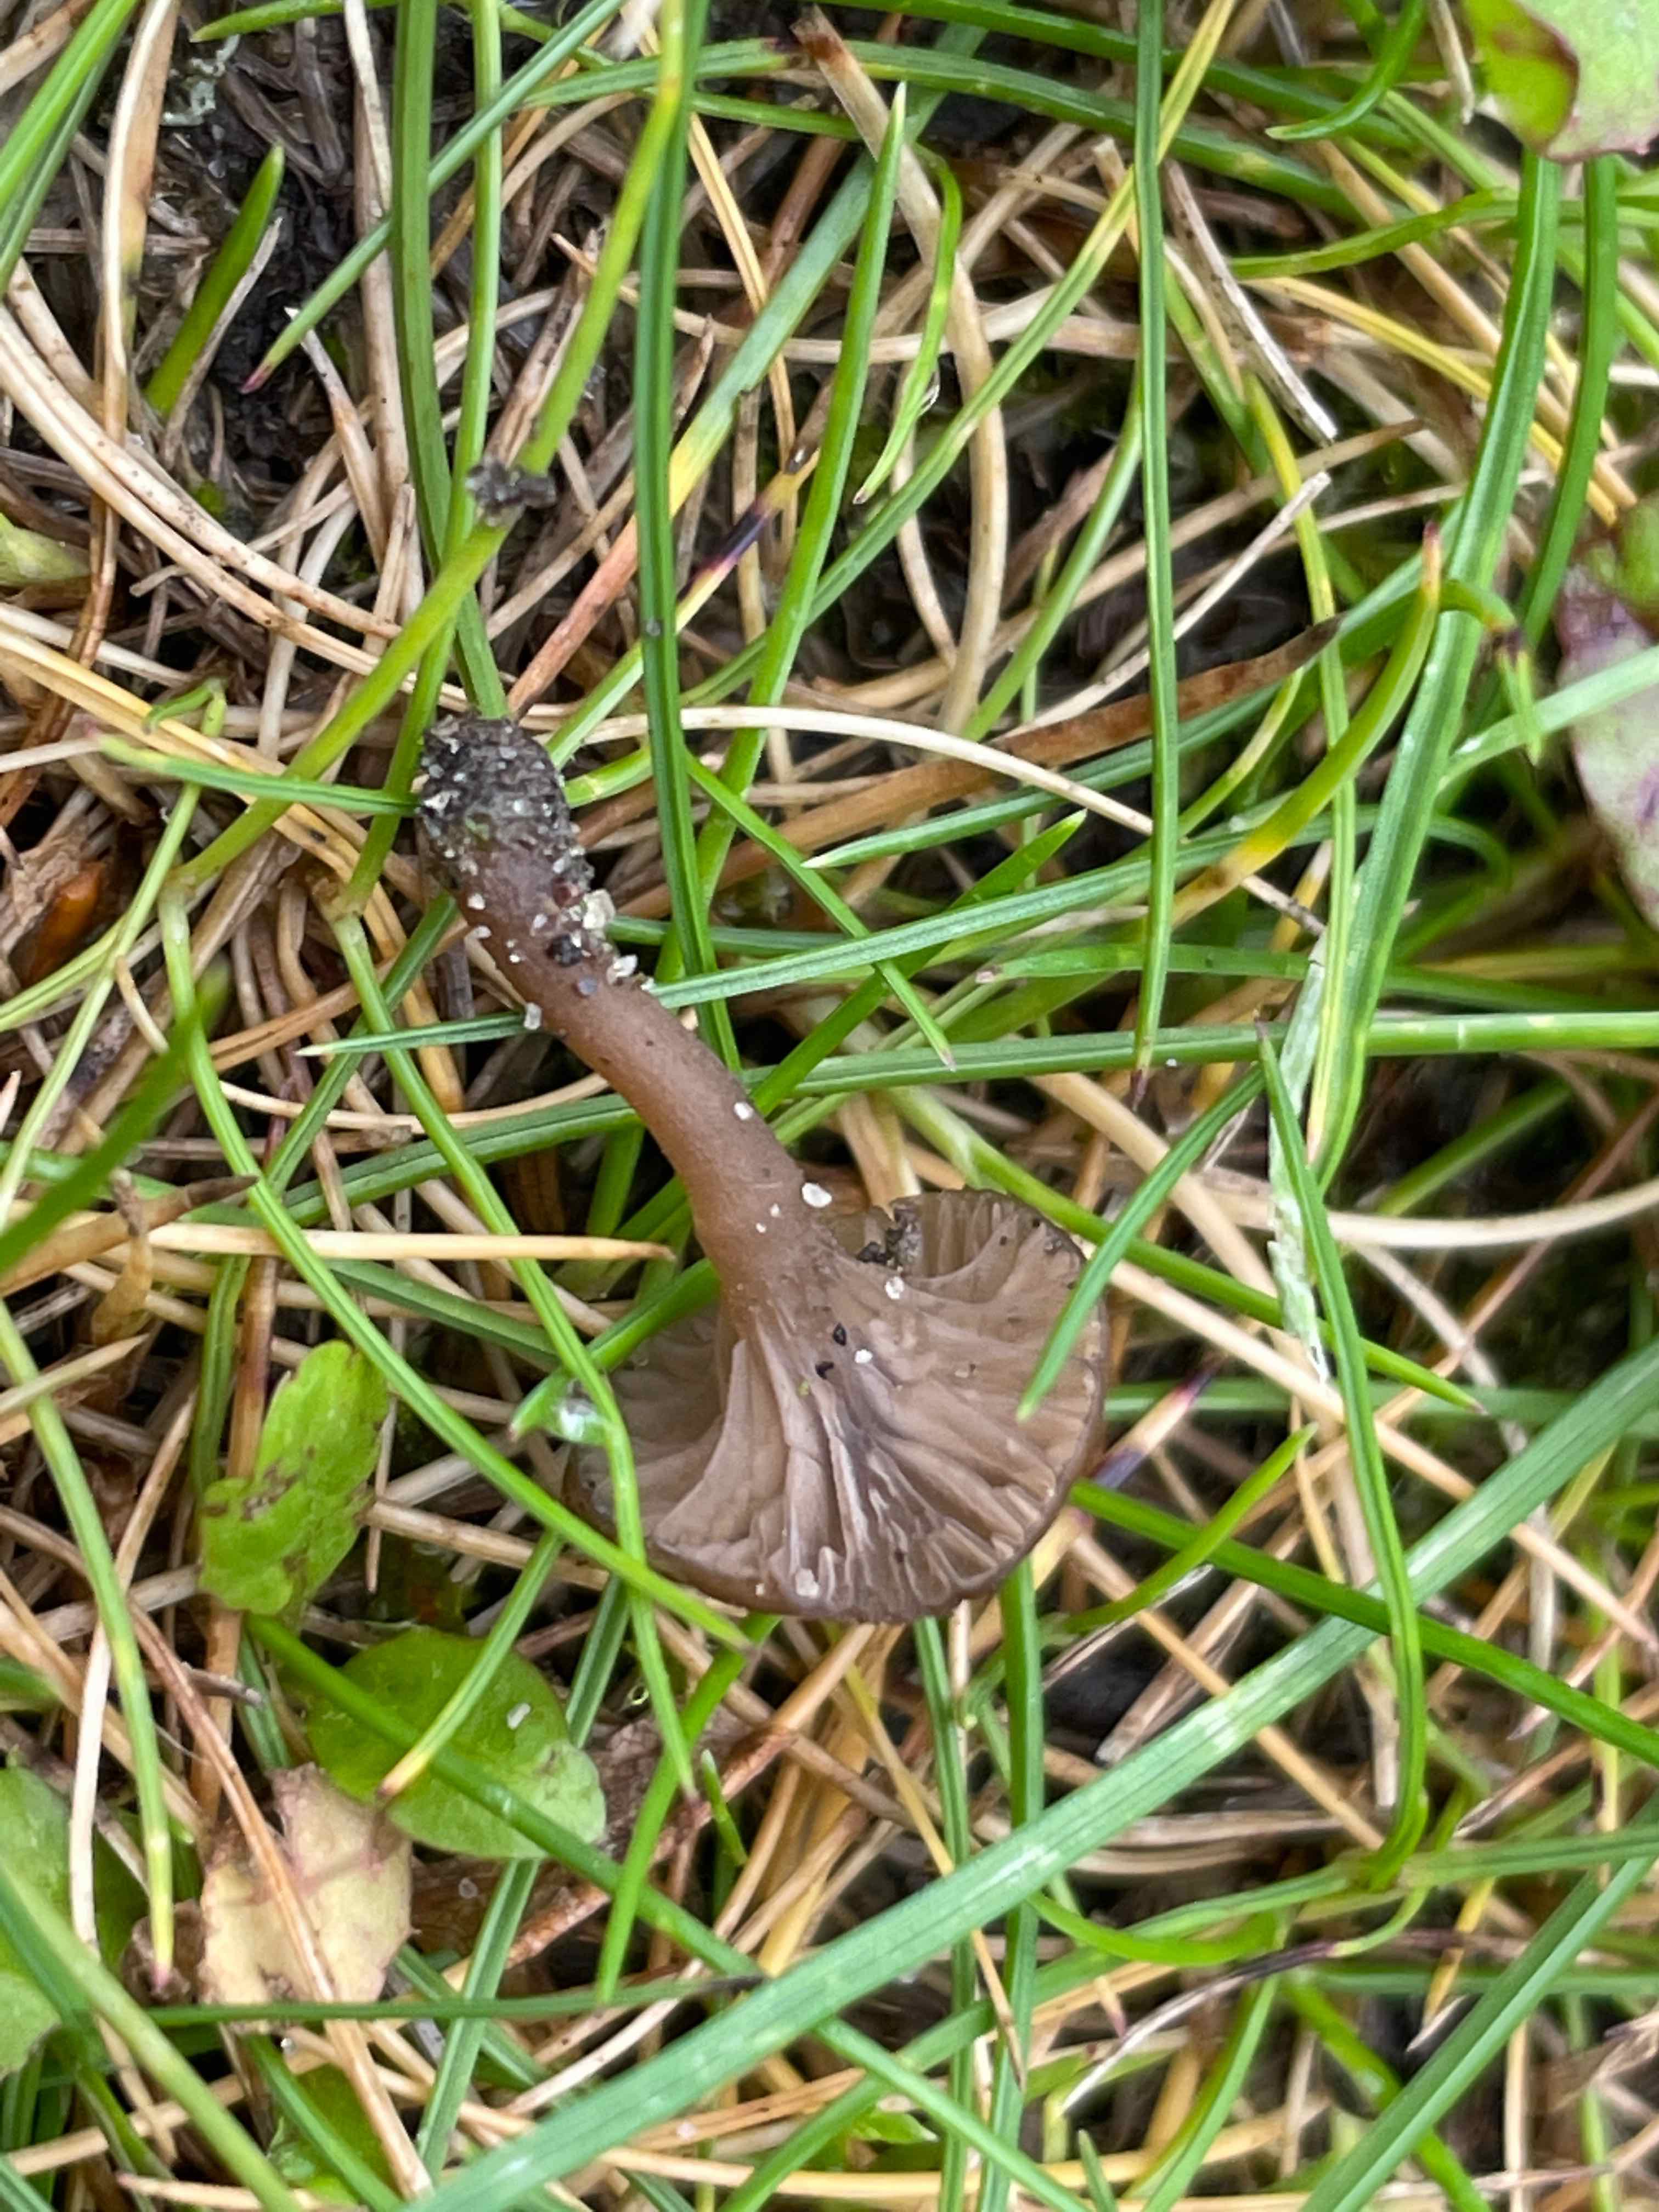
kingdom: Fungi
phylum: Basidiomycota
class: Agaricomycetes
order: Agaricales
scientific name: Agaricales
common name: champignonordenen
